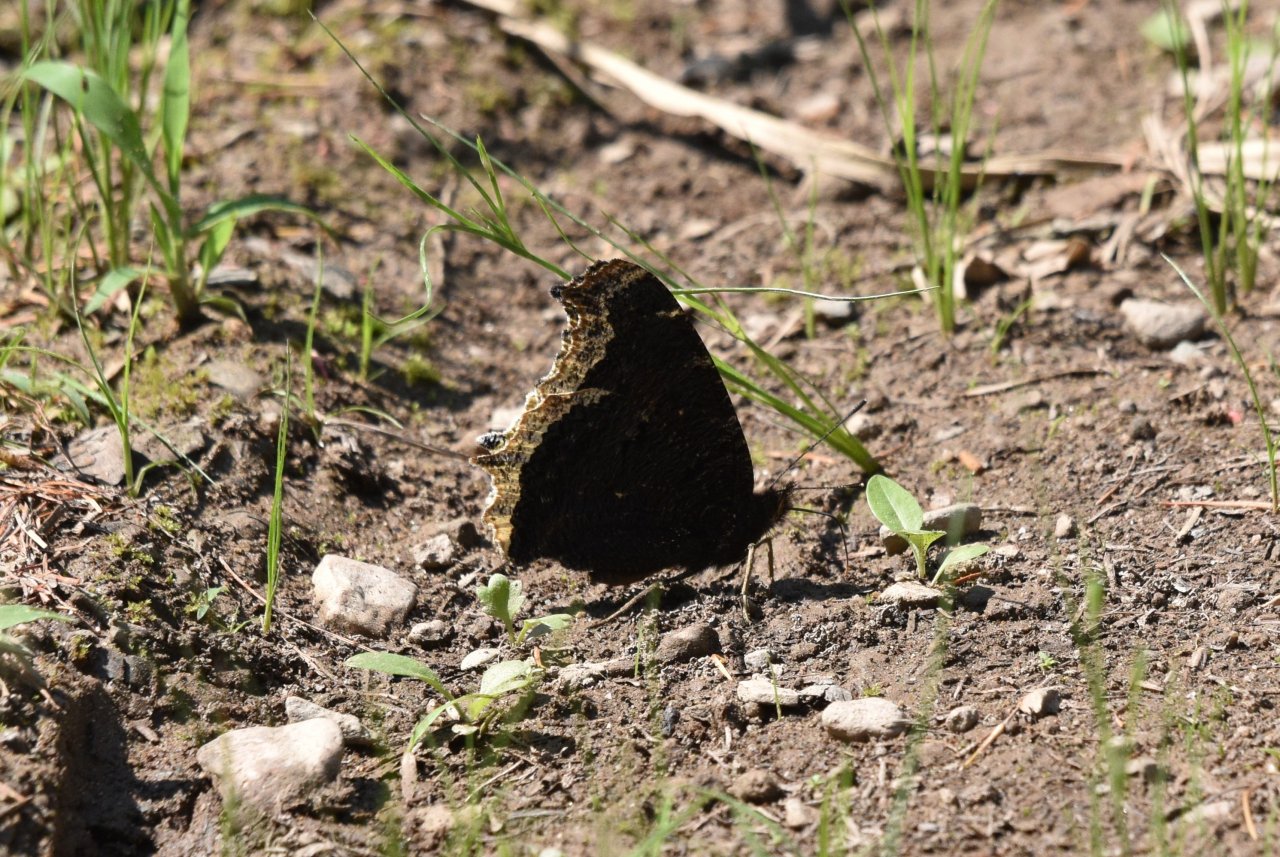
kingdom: Animalia
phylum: Arthropoda
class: Insecta
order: Lepidoptera
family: Nymphalidae
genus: Nymphalis
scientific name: Nymphalis antiopa
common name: Mourning Cloak
